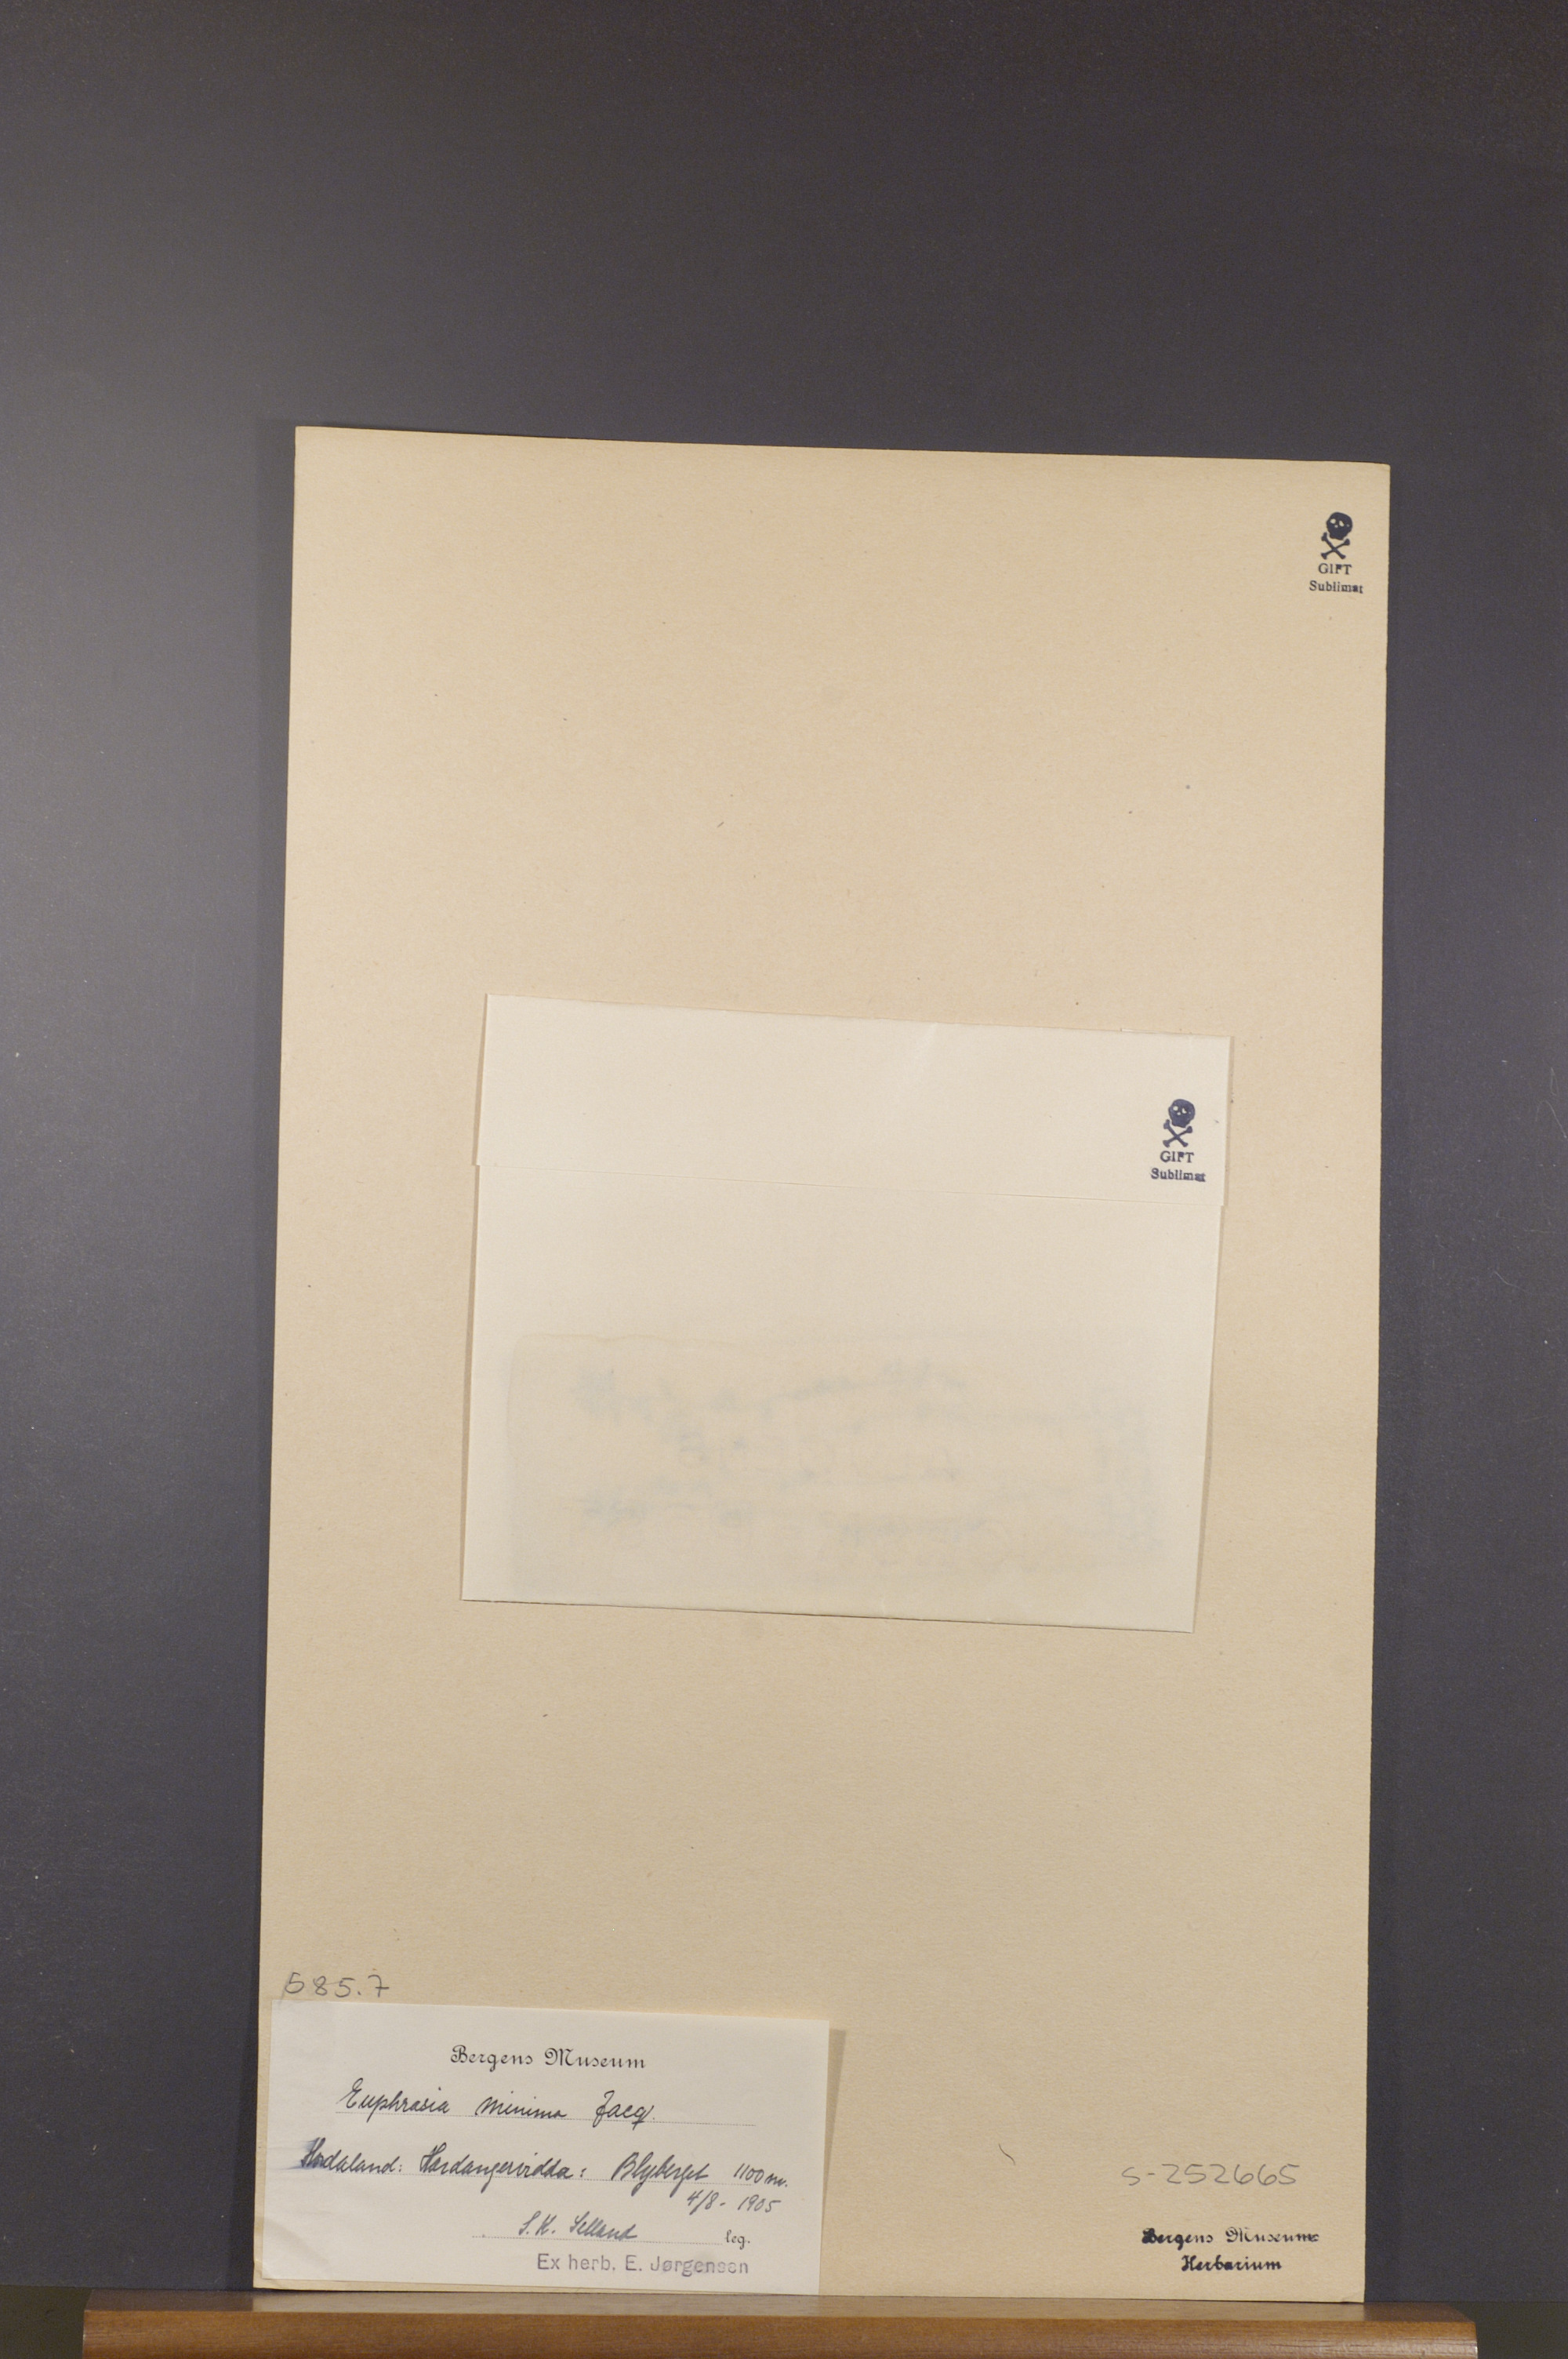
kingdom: Plantae
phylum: Tracheophyta
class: Magnoliopsida
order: Lamiales
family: Orobanchaceae
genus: Euphrasia
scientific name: Euphrasia minima
